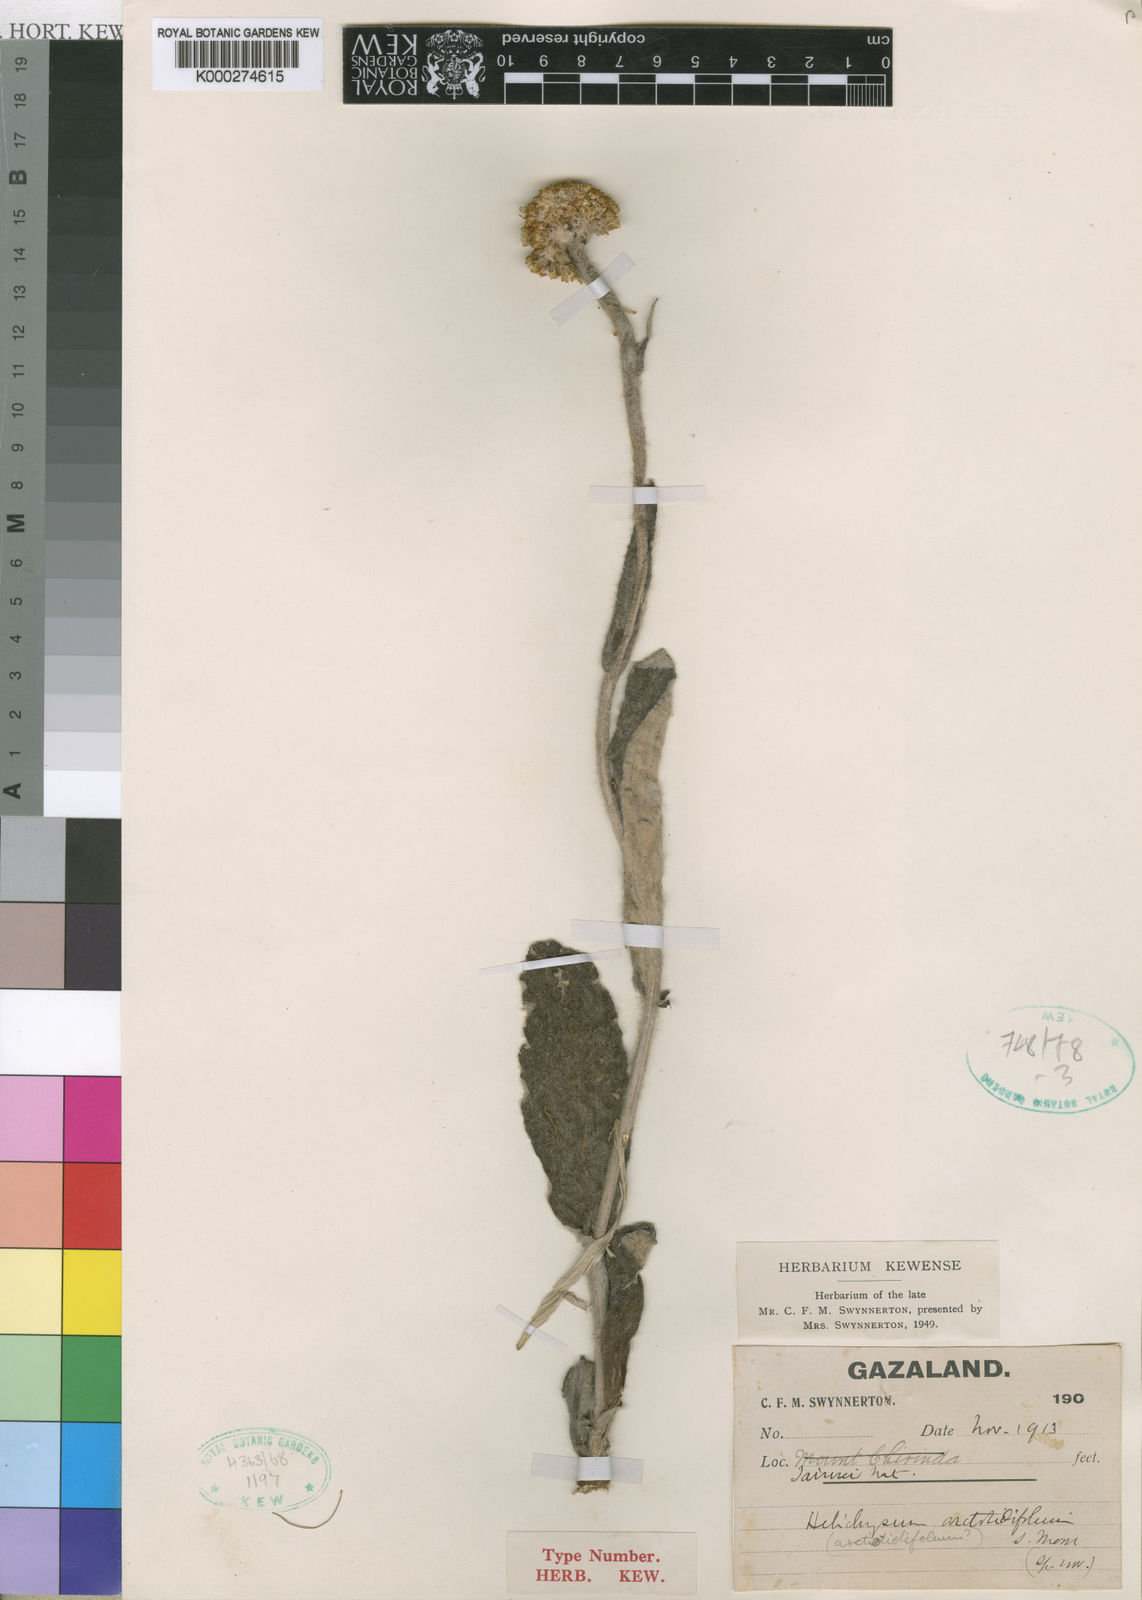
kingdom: Plantae
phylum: Tracheophyta
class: Magnoliopsida
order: Asterales
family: Asteraceae
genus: Helichrysum
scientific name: Helichrysum nudifolium
